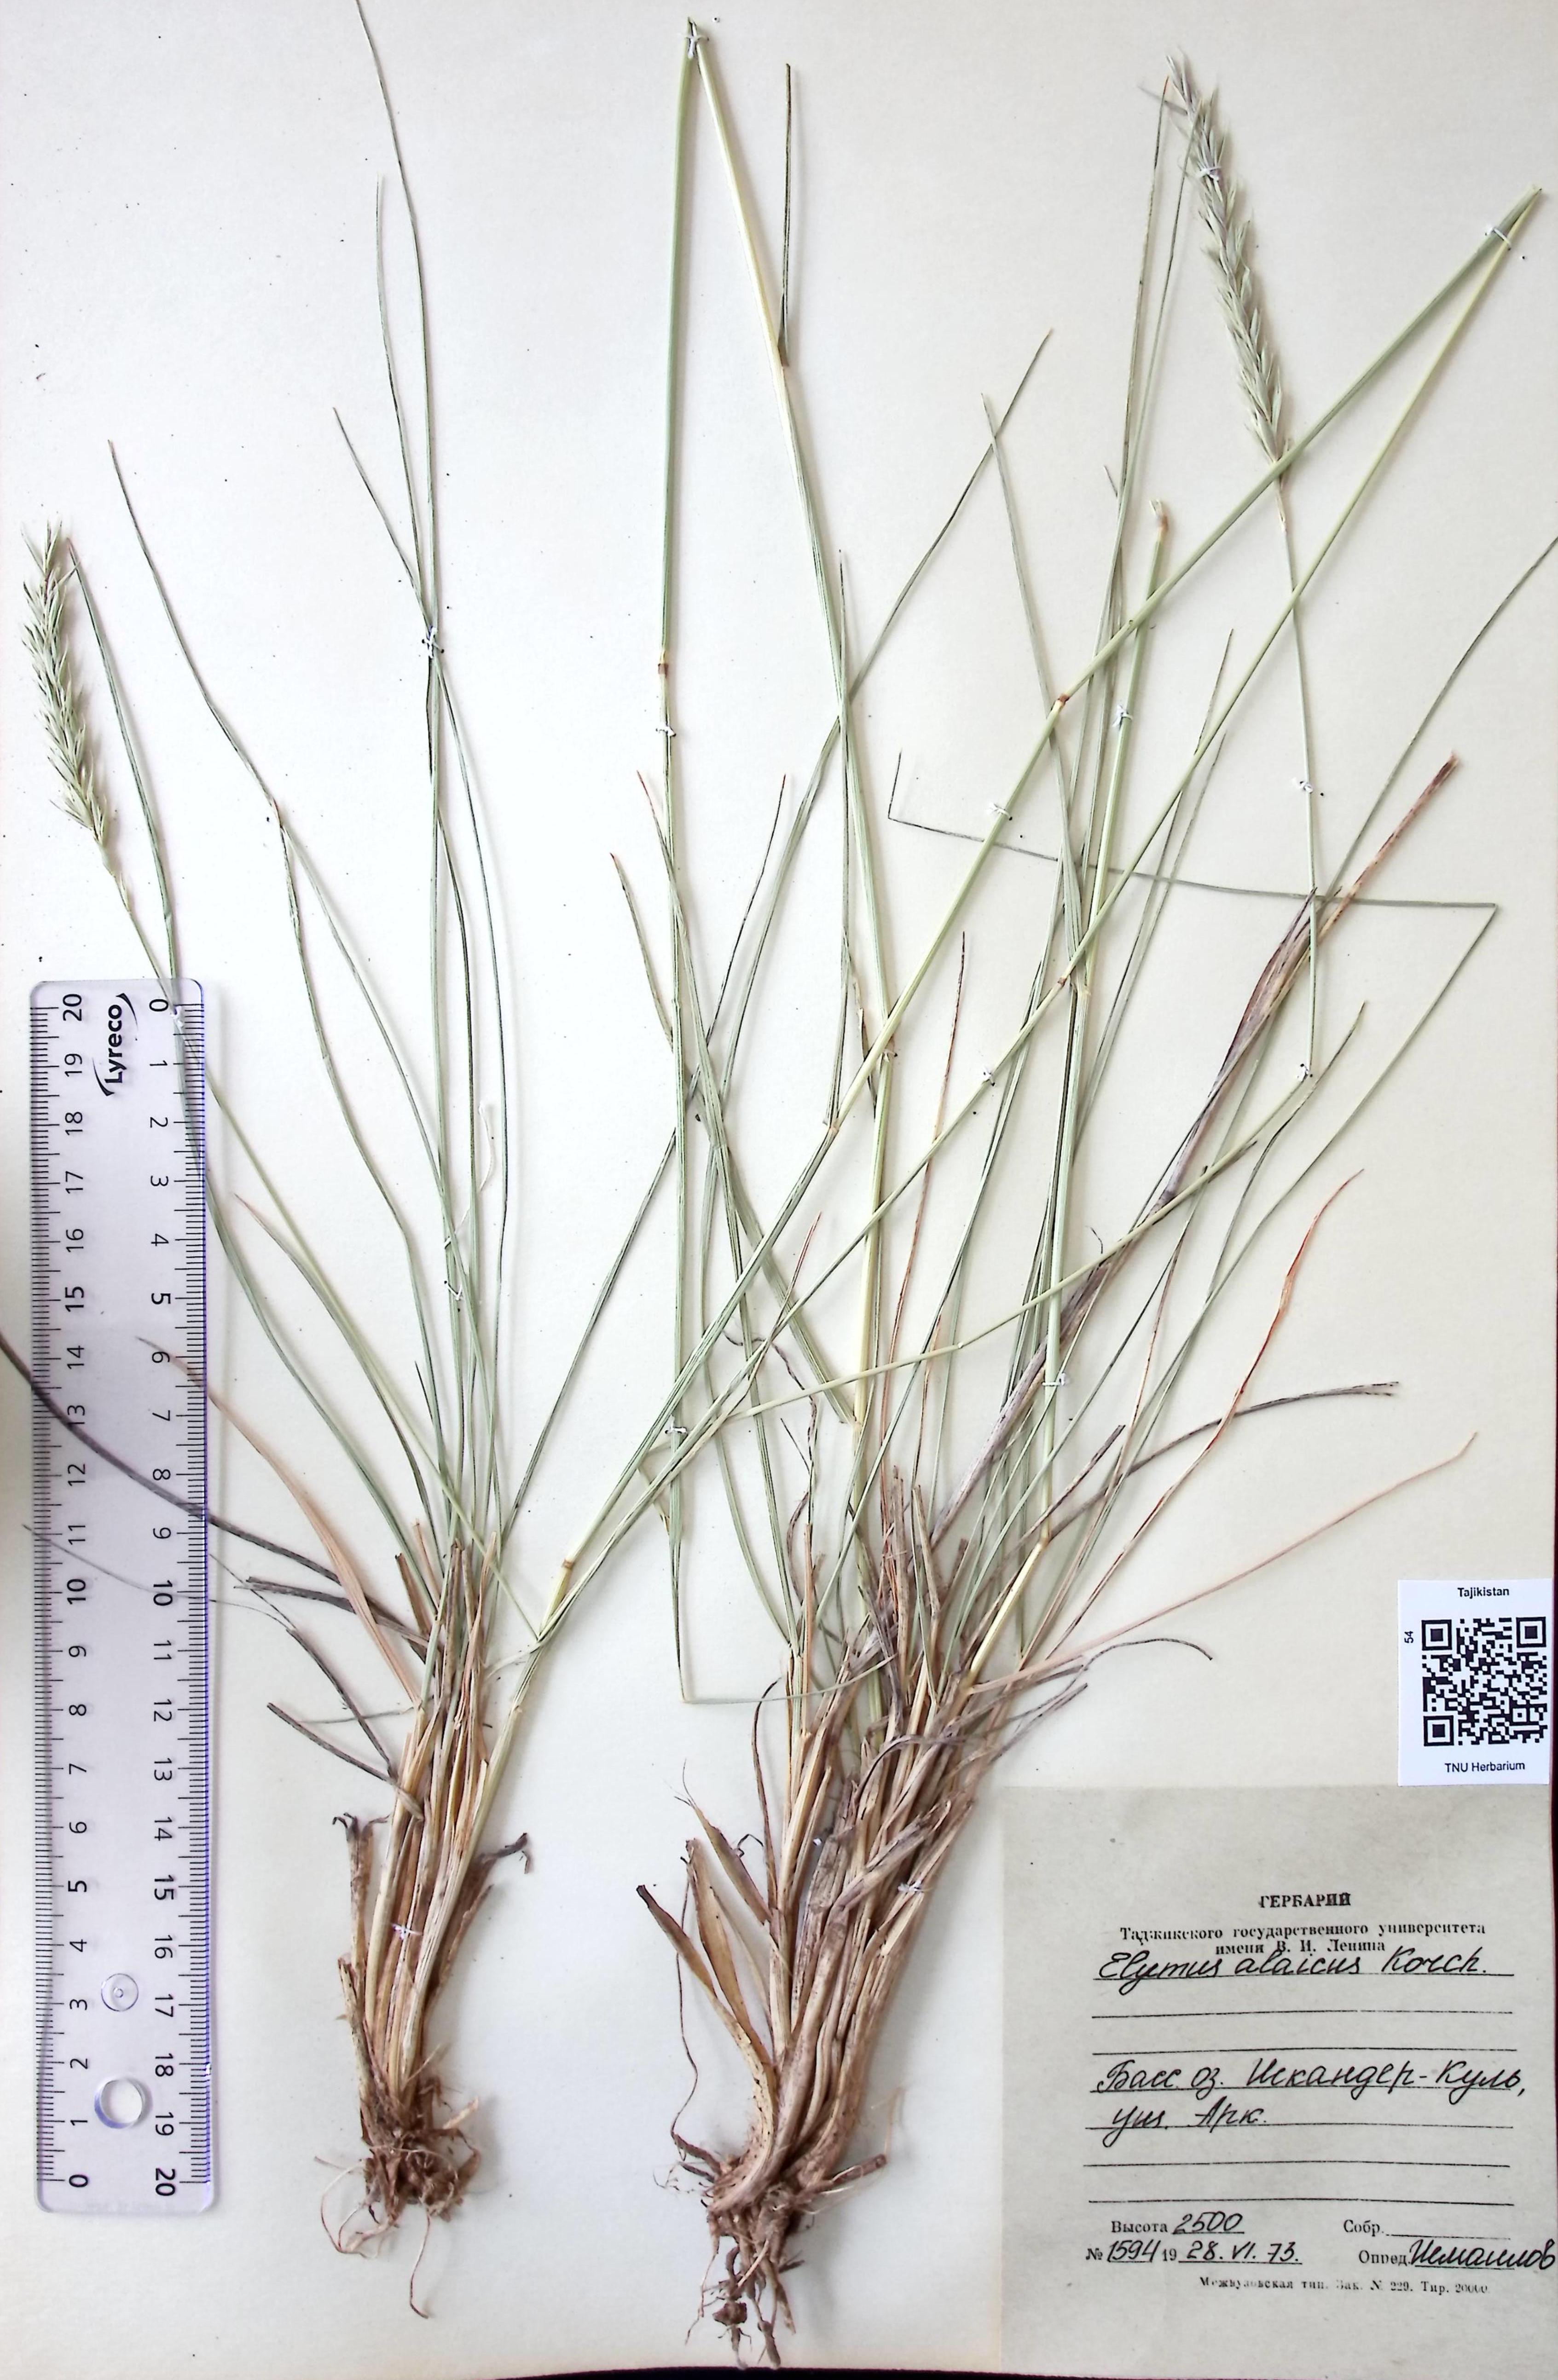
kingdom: Plantae
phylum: Tracheophyta
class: Liliopsida
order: Poales
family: Poaceae
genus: Leymus
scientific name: Leymus alaicus
